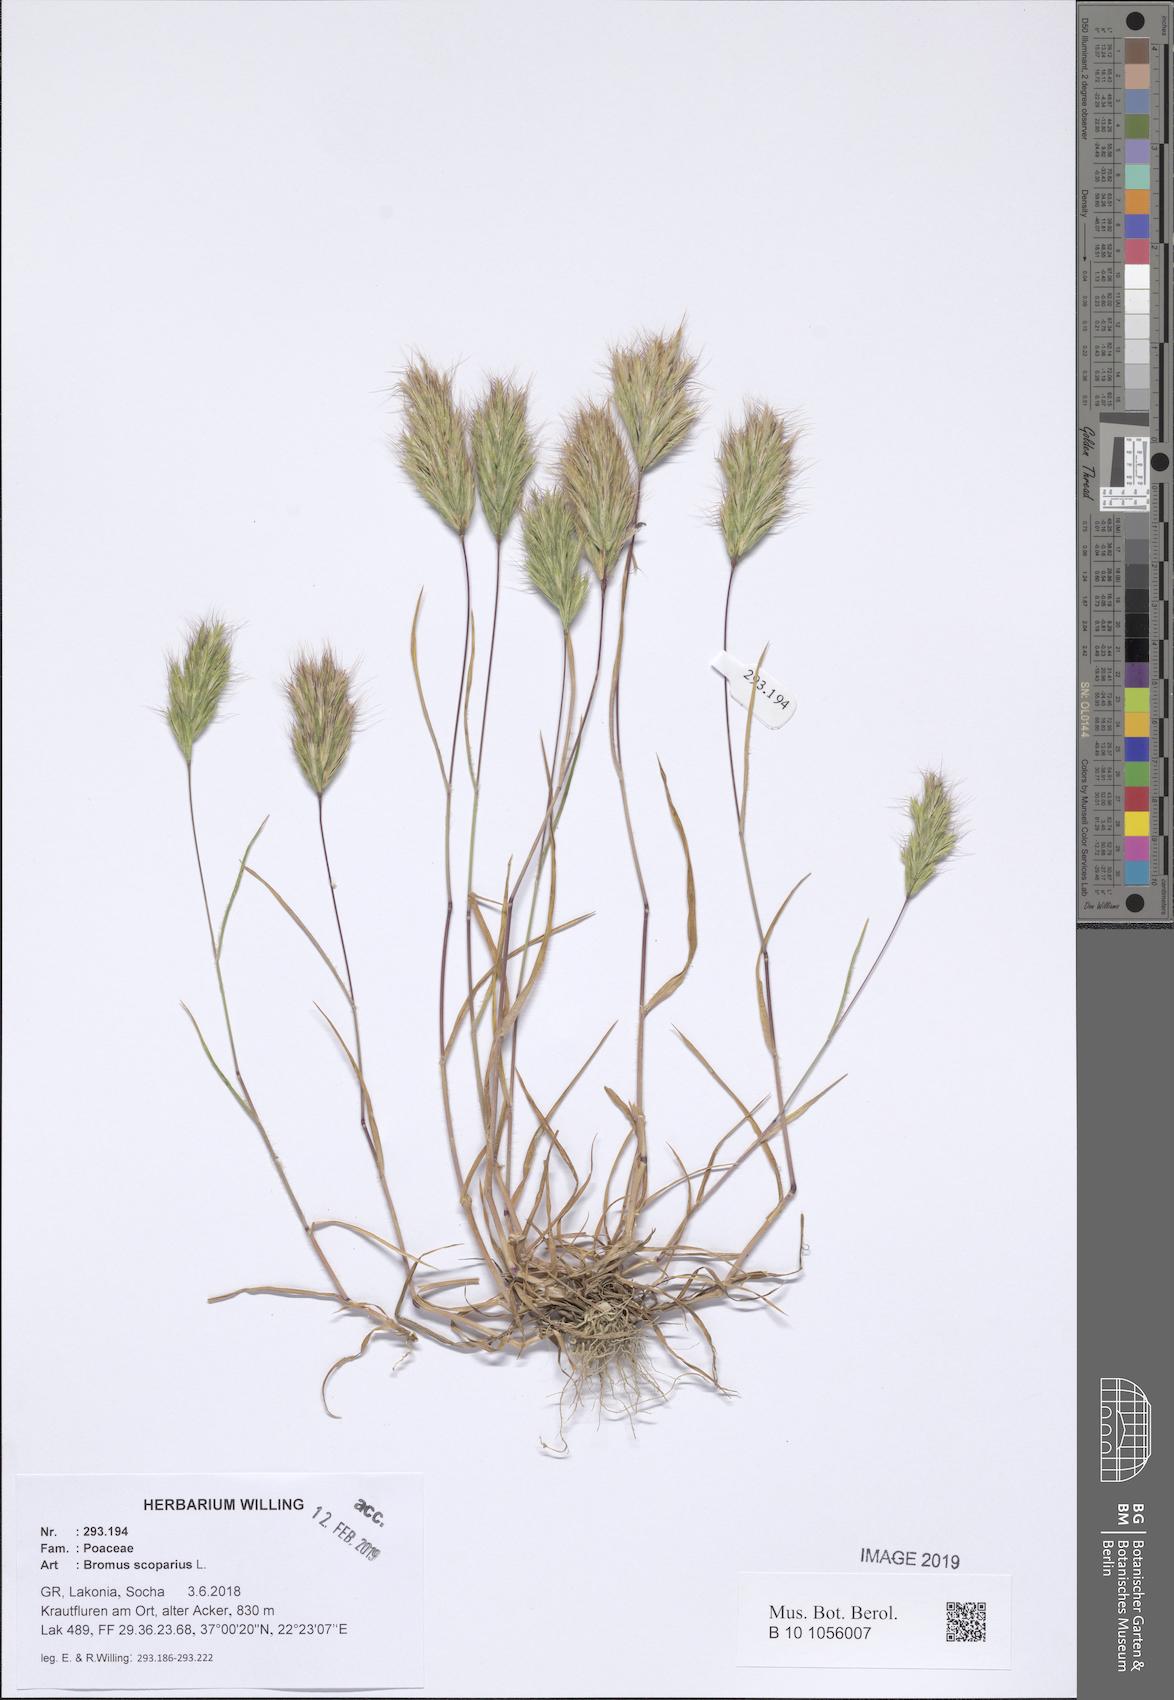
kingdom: Plantae
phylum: Tracheophyta
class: Liliopsida
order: Poales
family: Poaceae
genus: Bromus
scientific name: Bromus scoparius
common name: Broom brome
